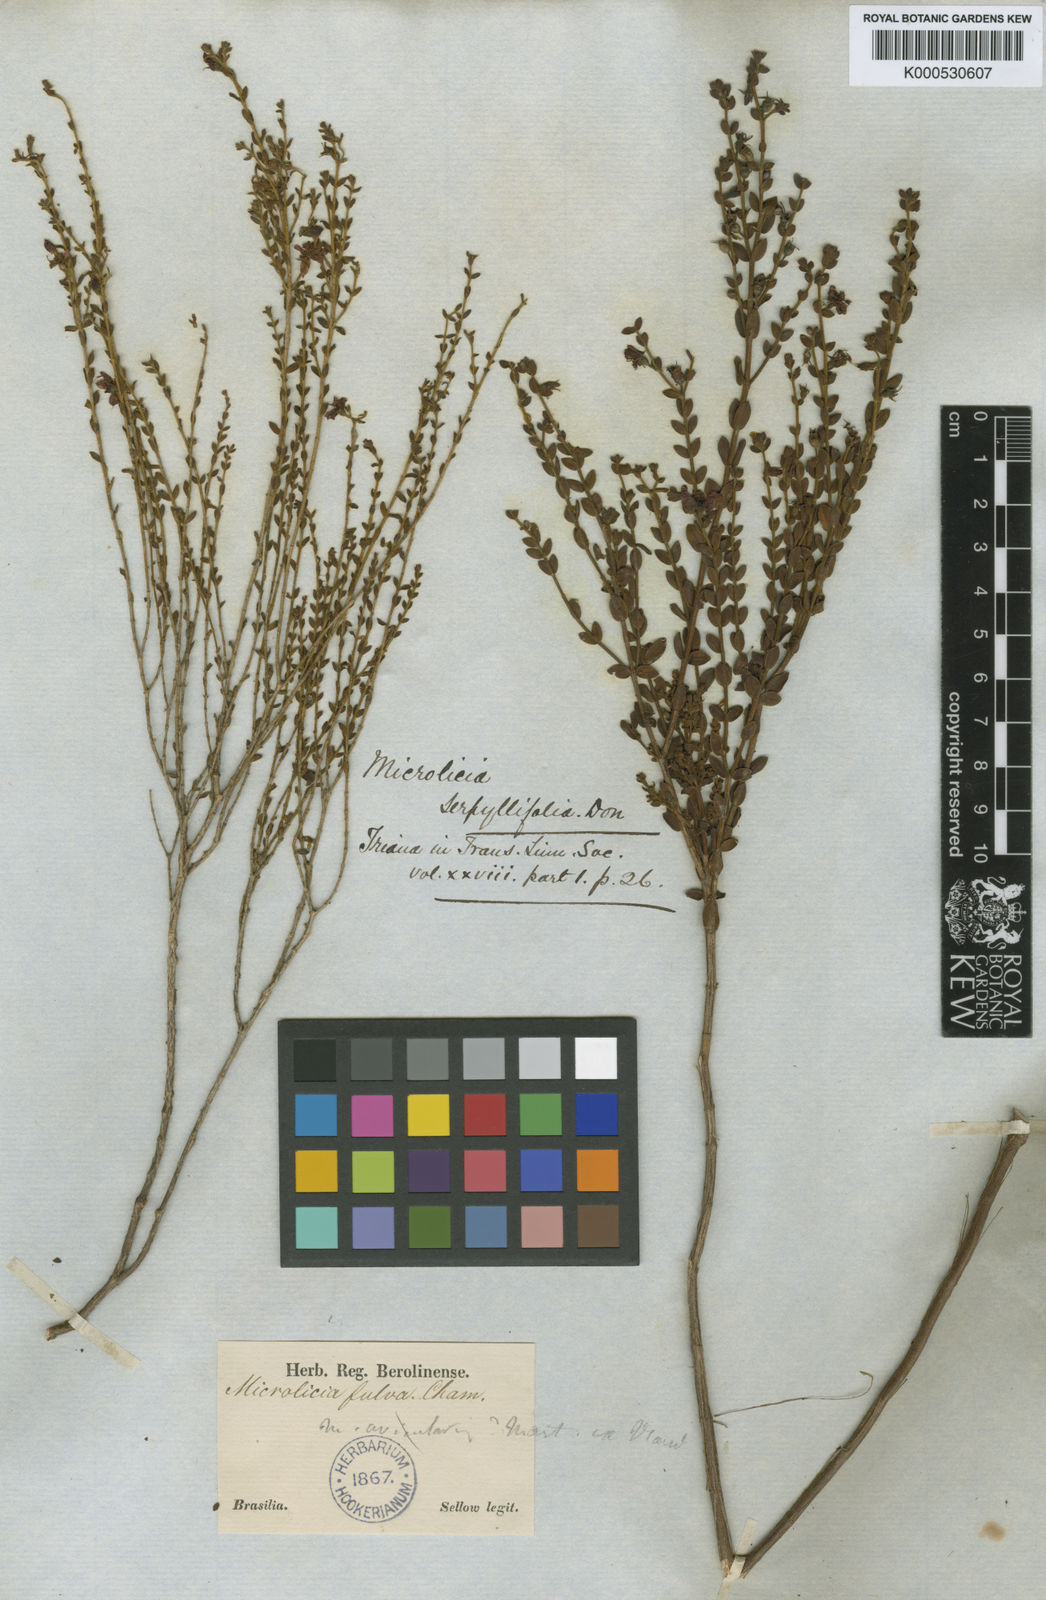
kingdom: Plantae
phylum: Tracheophyta
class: Magnoliopsida
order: Myrtales
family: Melastomataceae
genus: Microlicia
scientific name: Microlicia fulva
